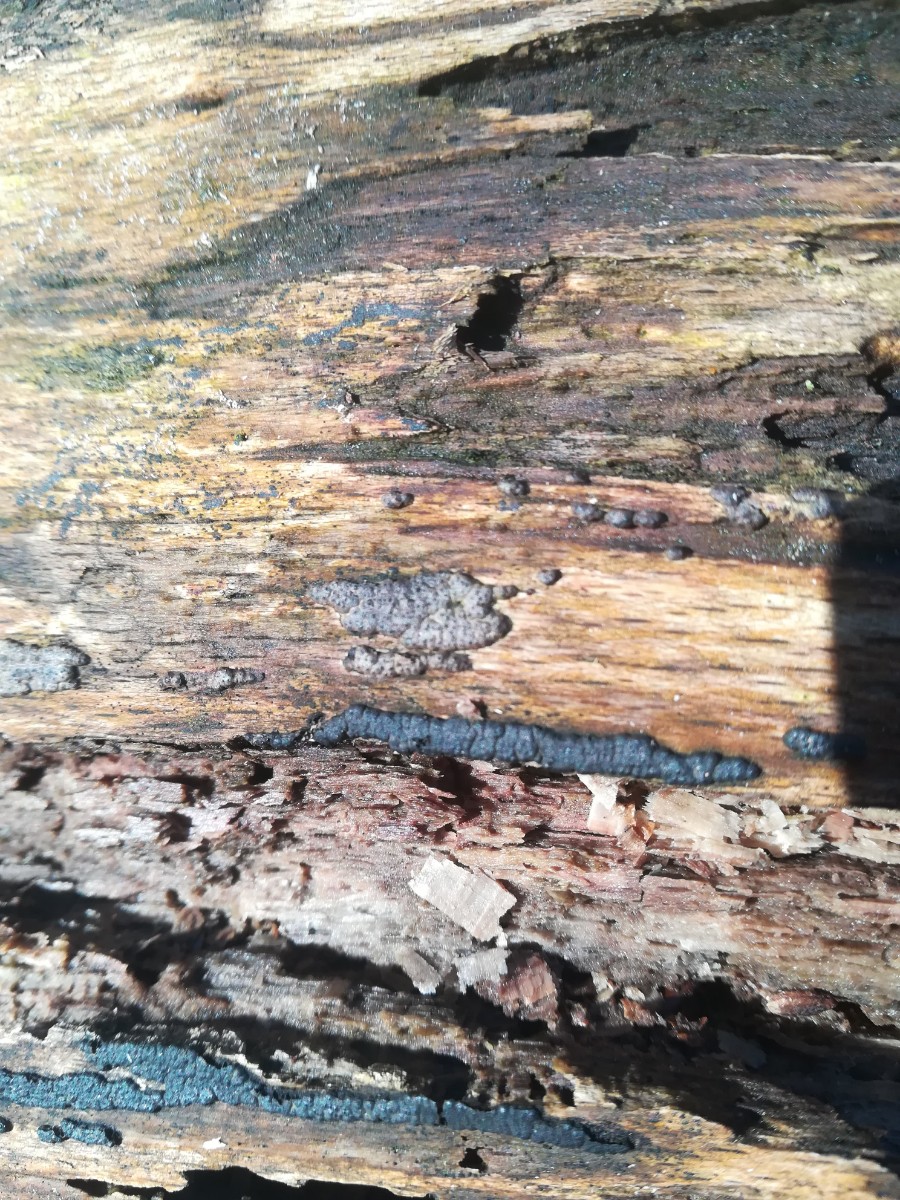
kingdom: Fungi
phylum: Ascomycota
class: Sordariomycetes
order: Xylariales
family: Xylariaceae
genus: Nemania
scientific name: Nemania serpens
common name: almindelig kuldyne
